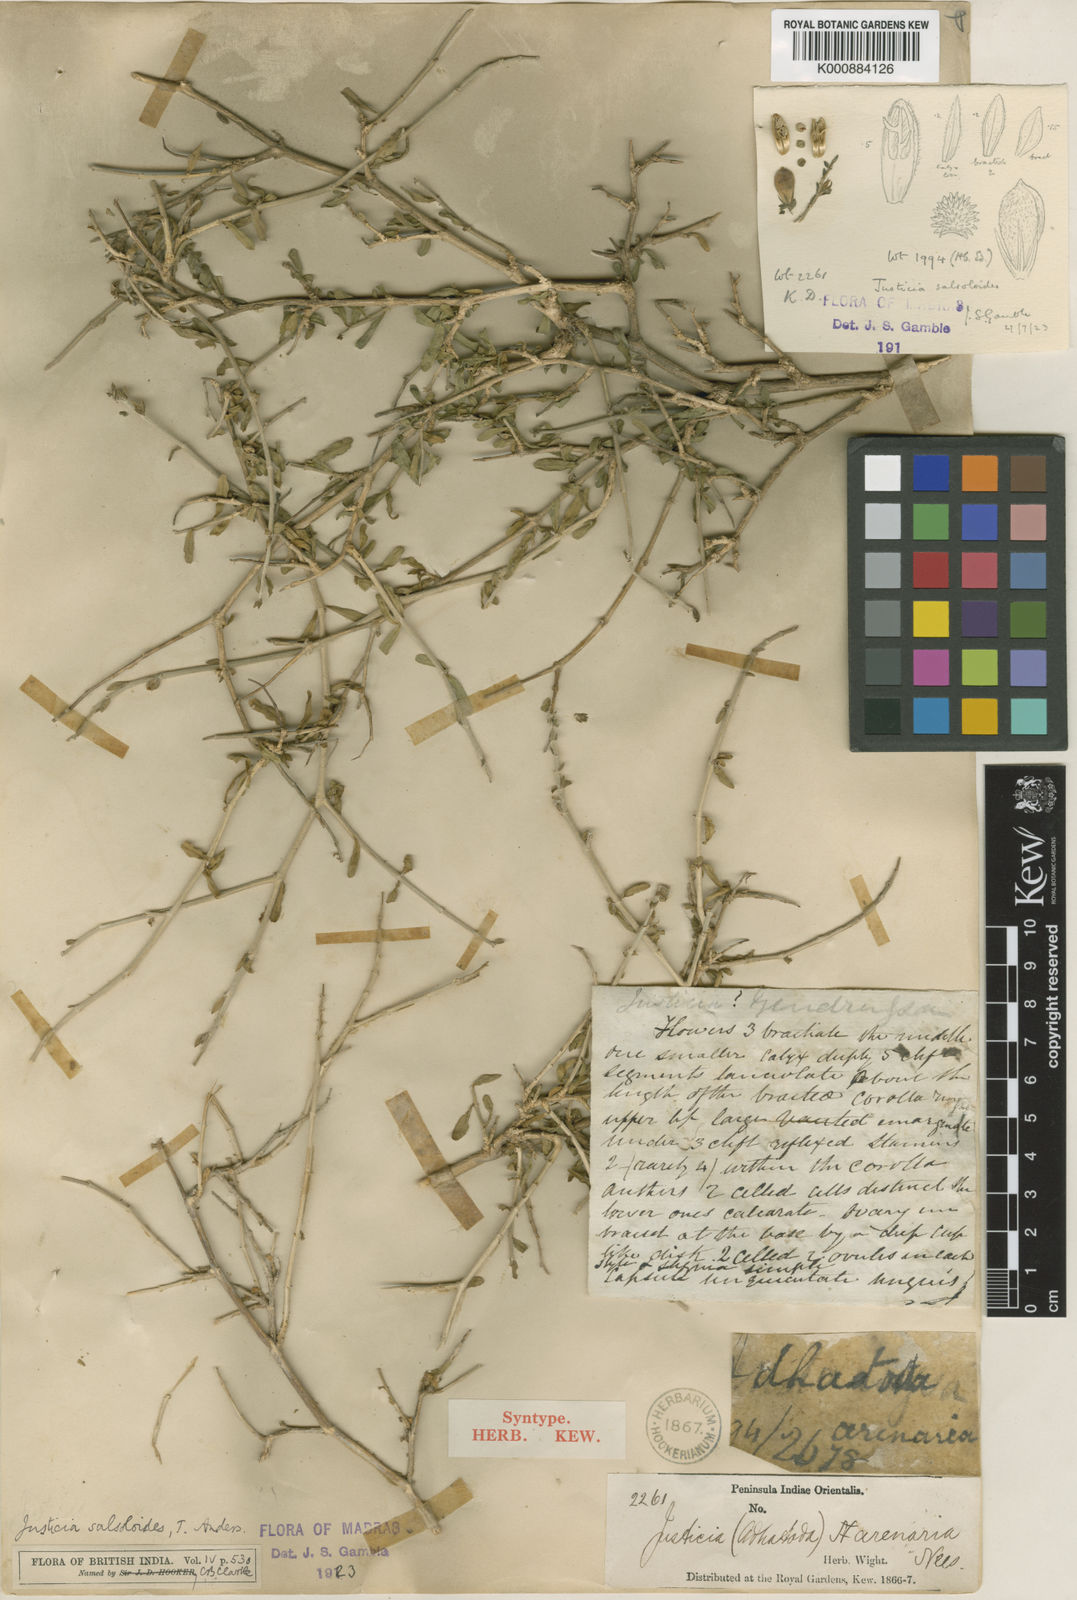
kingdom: Plantae
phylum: Tracheophyta
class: Magnoliopsida
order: Lamiales
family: Acanthaceae
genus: Justicia
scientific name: Justicia salsoloides
